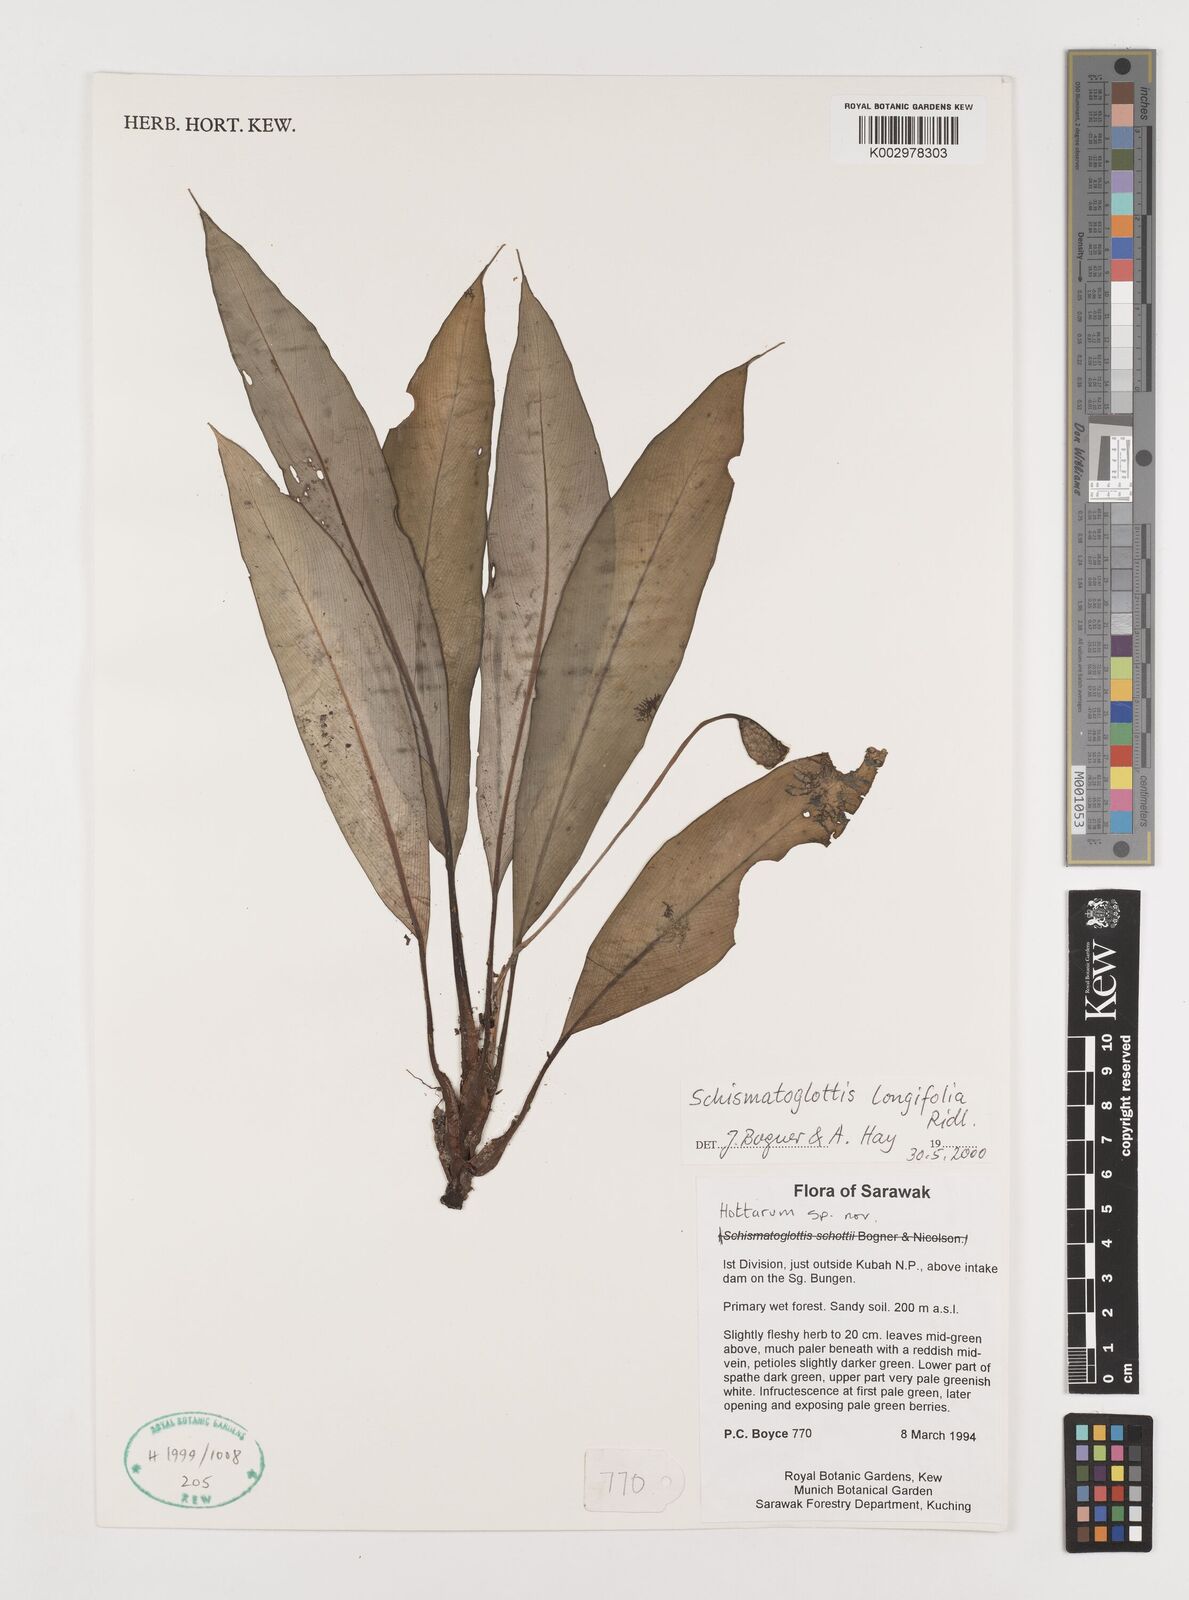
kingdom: Plantae
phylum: Tracheophyta
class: Liliopsida
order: Alismatales
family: Araceae
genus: Vesta
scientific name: Vesta longifolia
